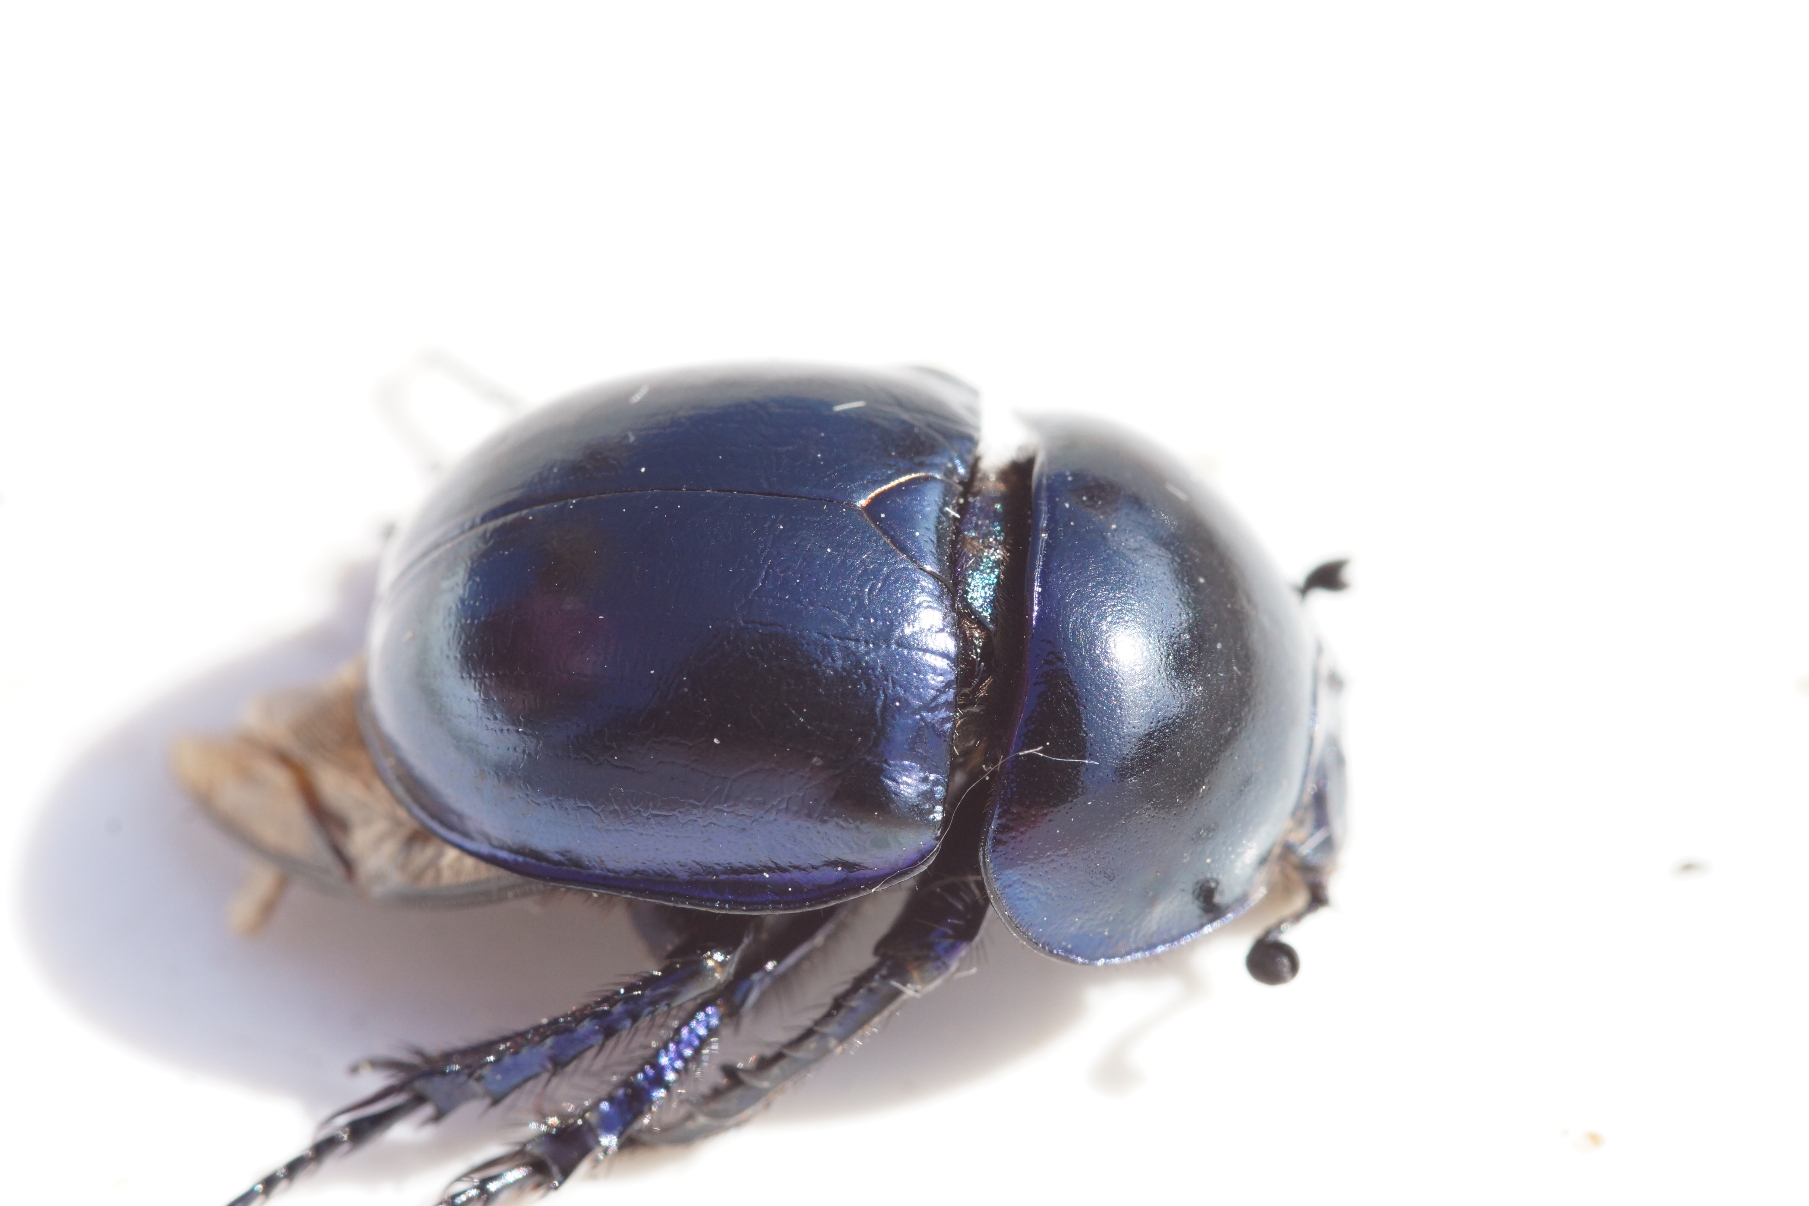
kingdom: Animalia
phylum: Arthropoda
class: Insecta
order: Coleoptera
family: Geotrupidae
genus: Trypocopris
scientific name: Trypocopris vernalis
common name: Glat skarnbasse
